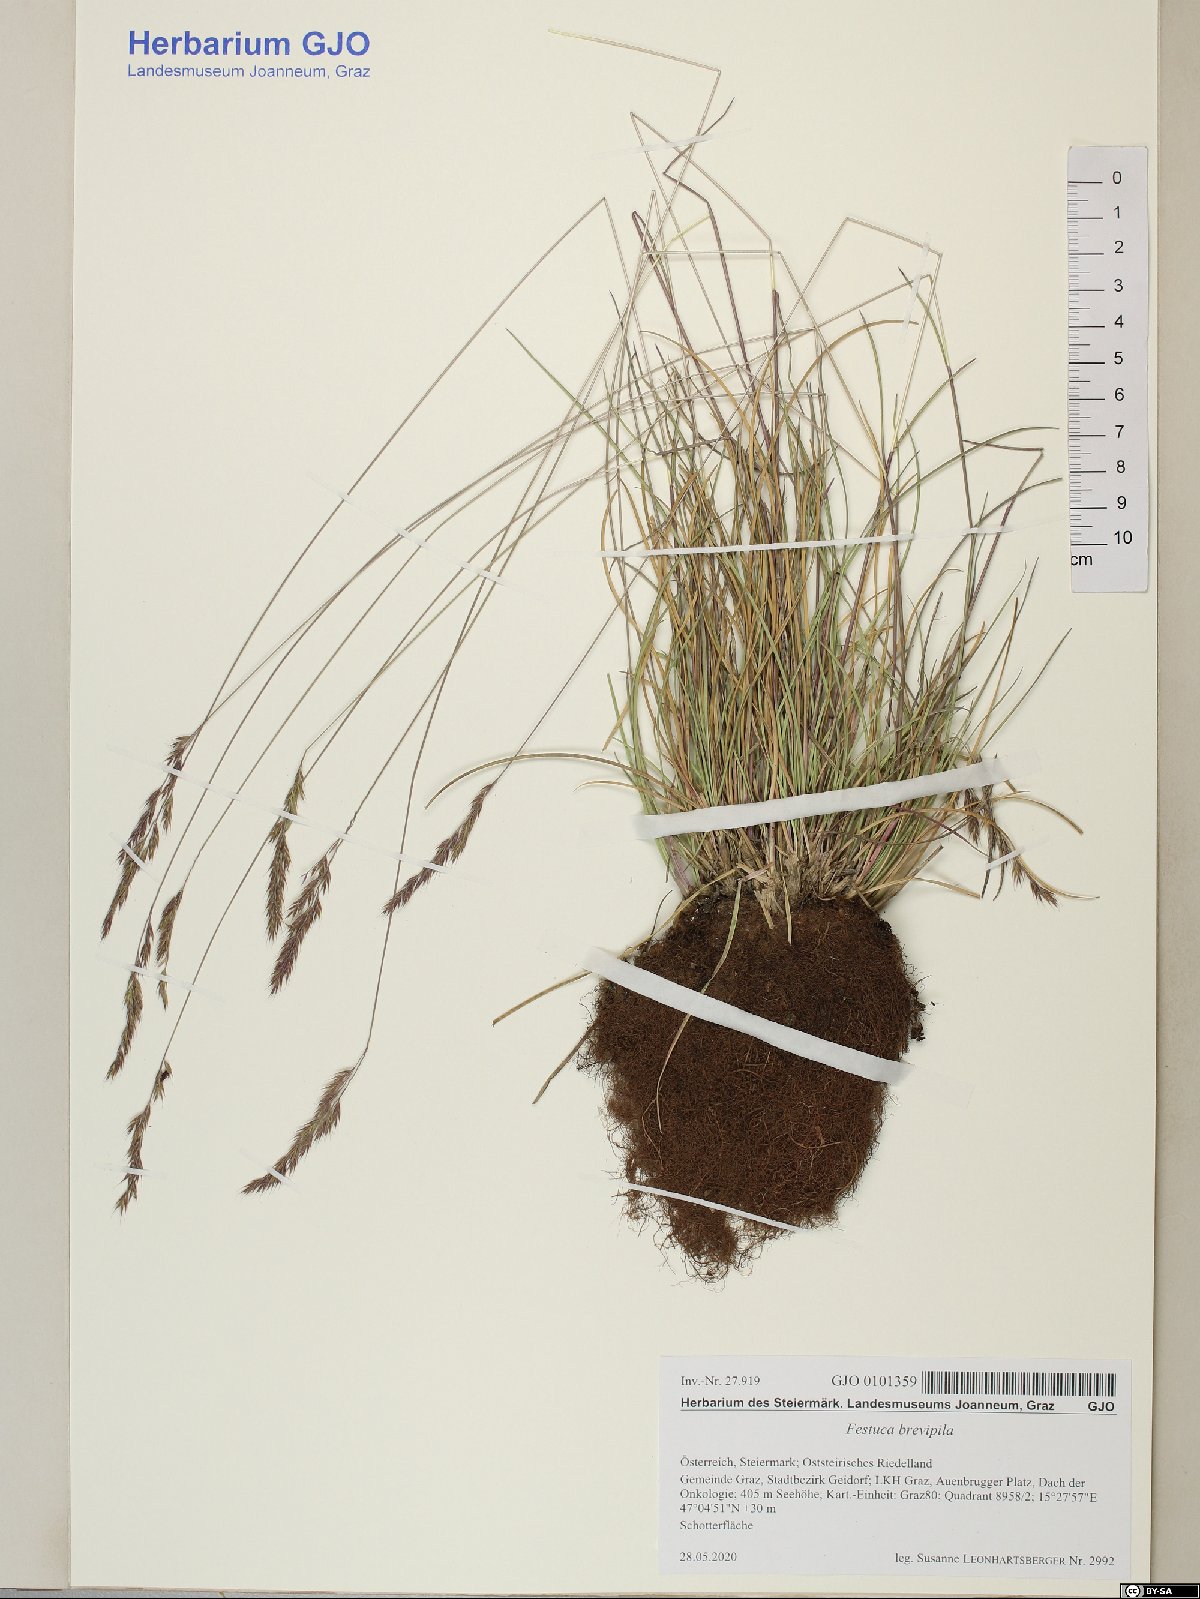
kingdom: Plantae
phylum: Tracheophyta
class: Liliopsida
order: Poales
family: Poaceae
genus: Festuca
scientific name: Festuca trachyphylla
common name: Hard fescue
